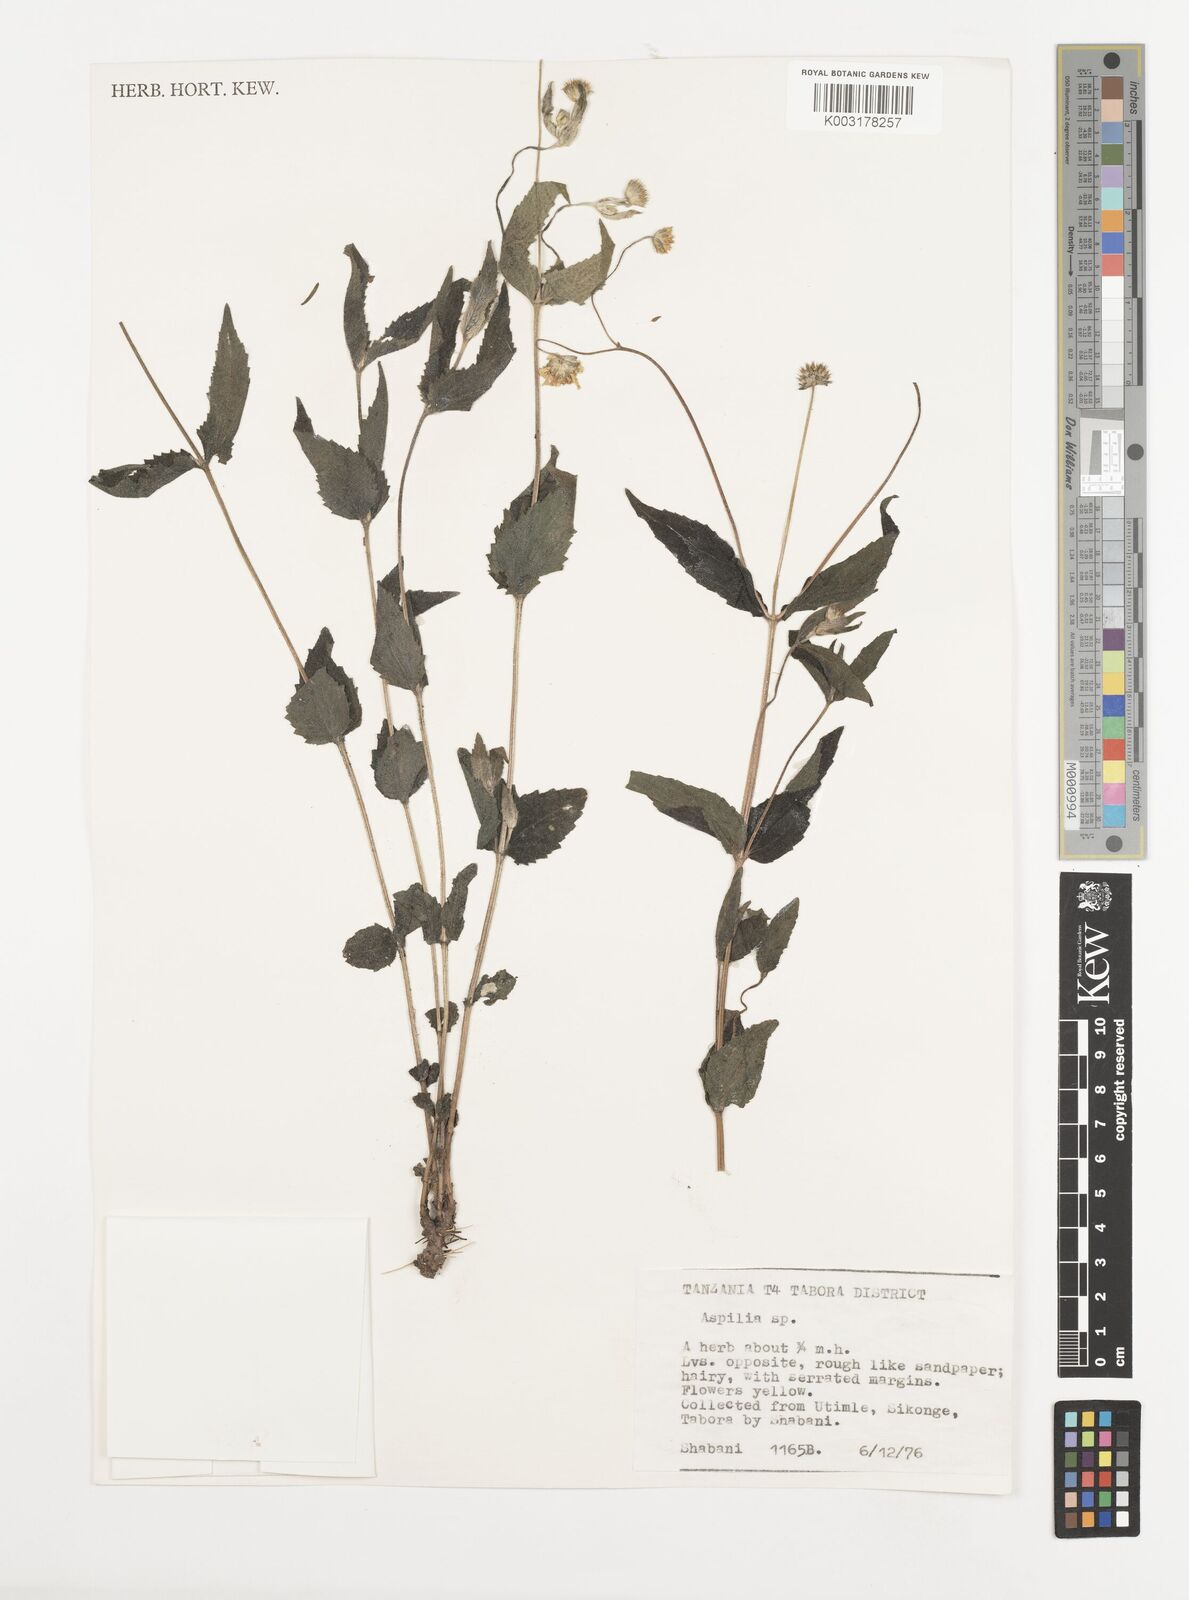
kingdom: Plantae
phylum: Tracheophyta
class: Magnoliopsida
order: Asterales
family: Asteraceae
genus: Aspilia
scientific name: Aspilia mossambicensis
